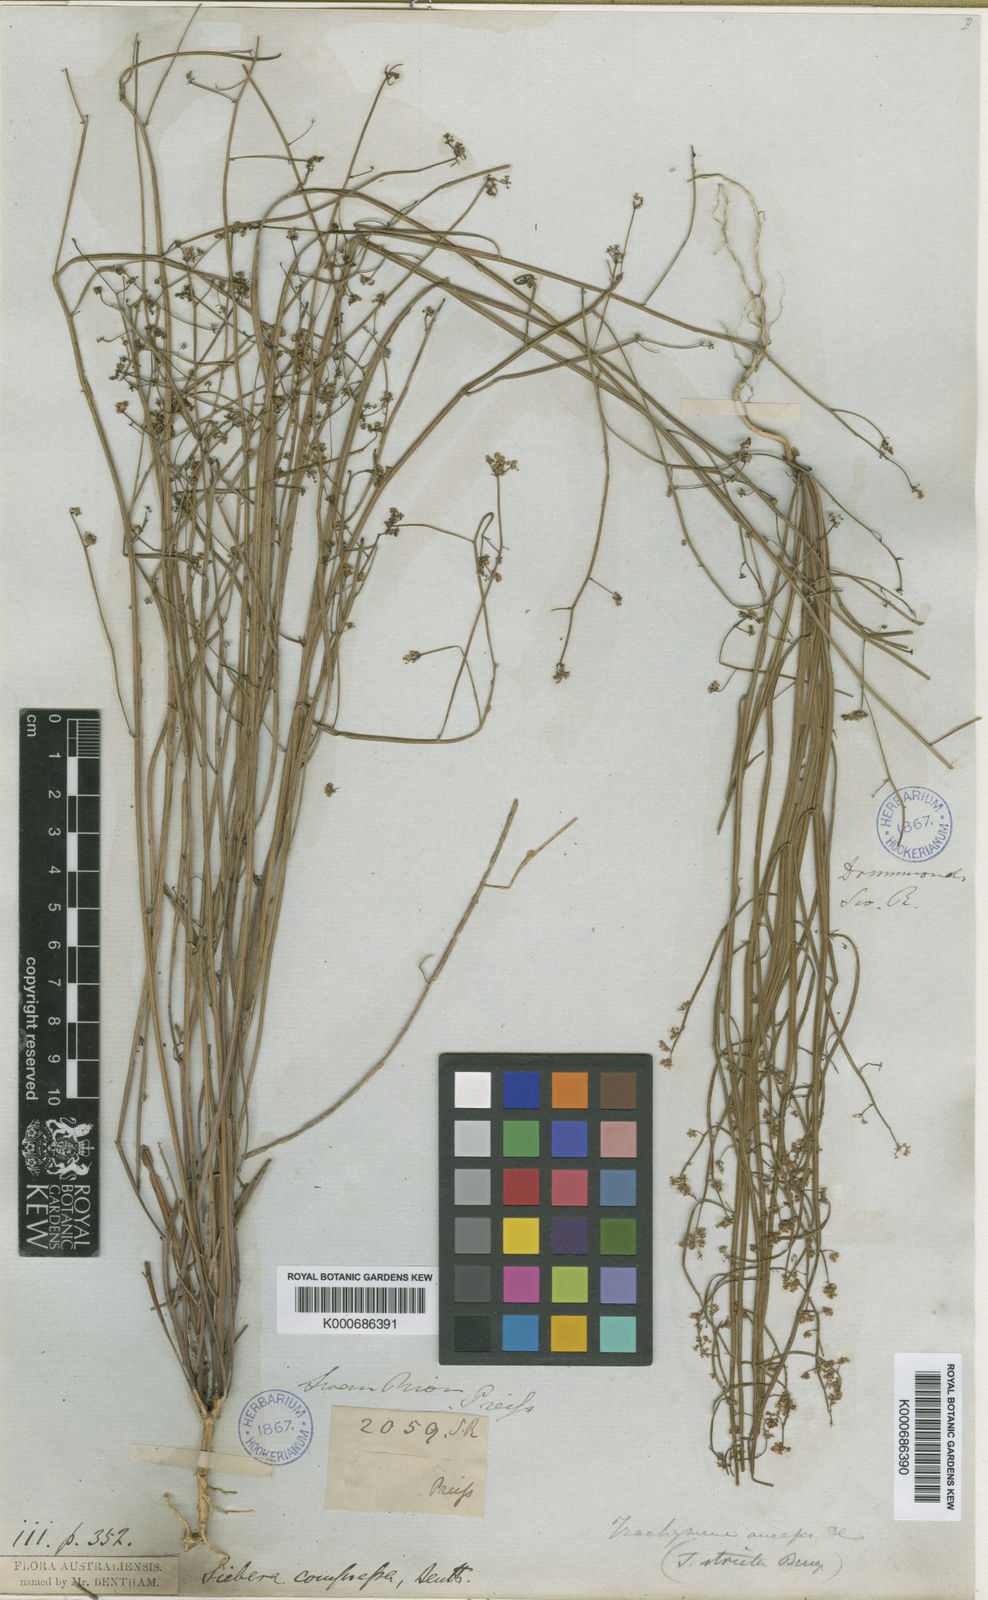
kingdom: Plantae
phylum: Tracheophyta
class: Magnoliopsida
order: Apiales
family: Apiaceae
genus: Platysace
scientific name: Platysace compressa
